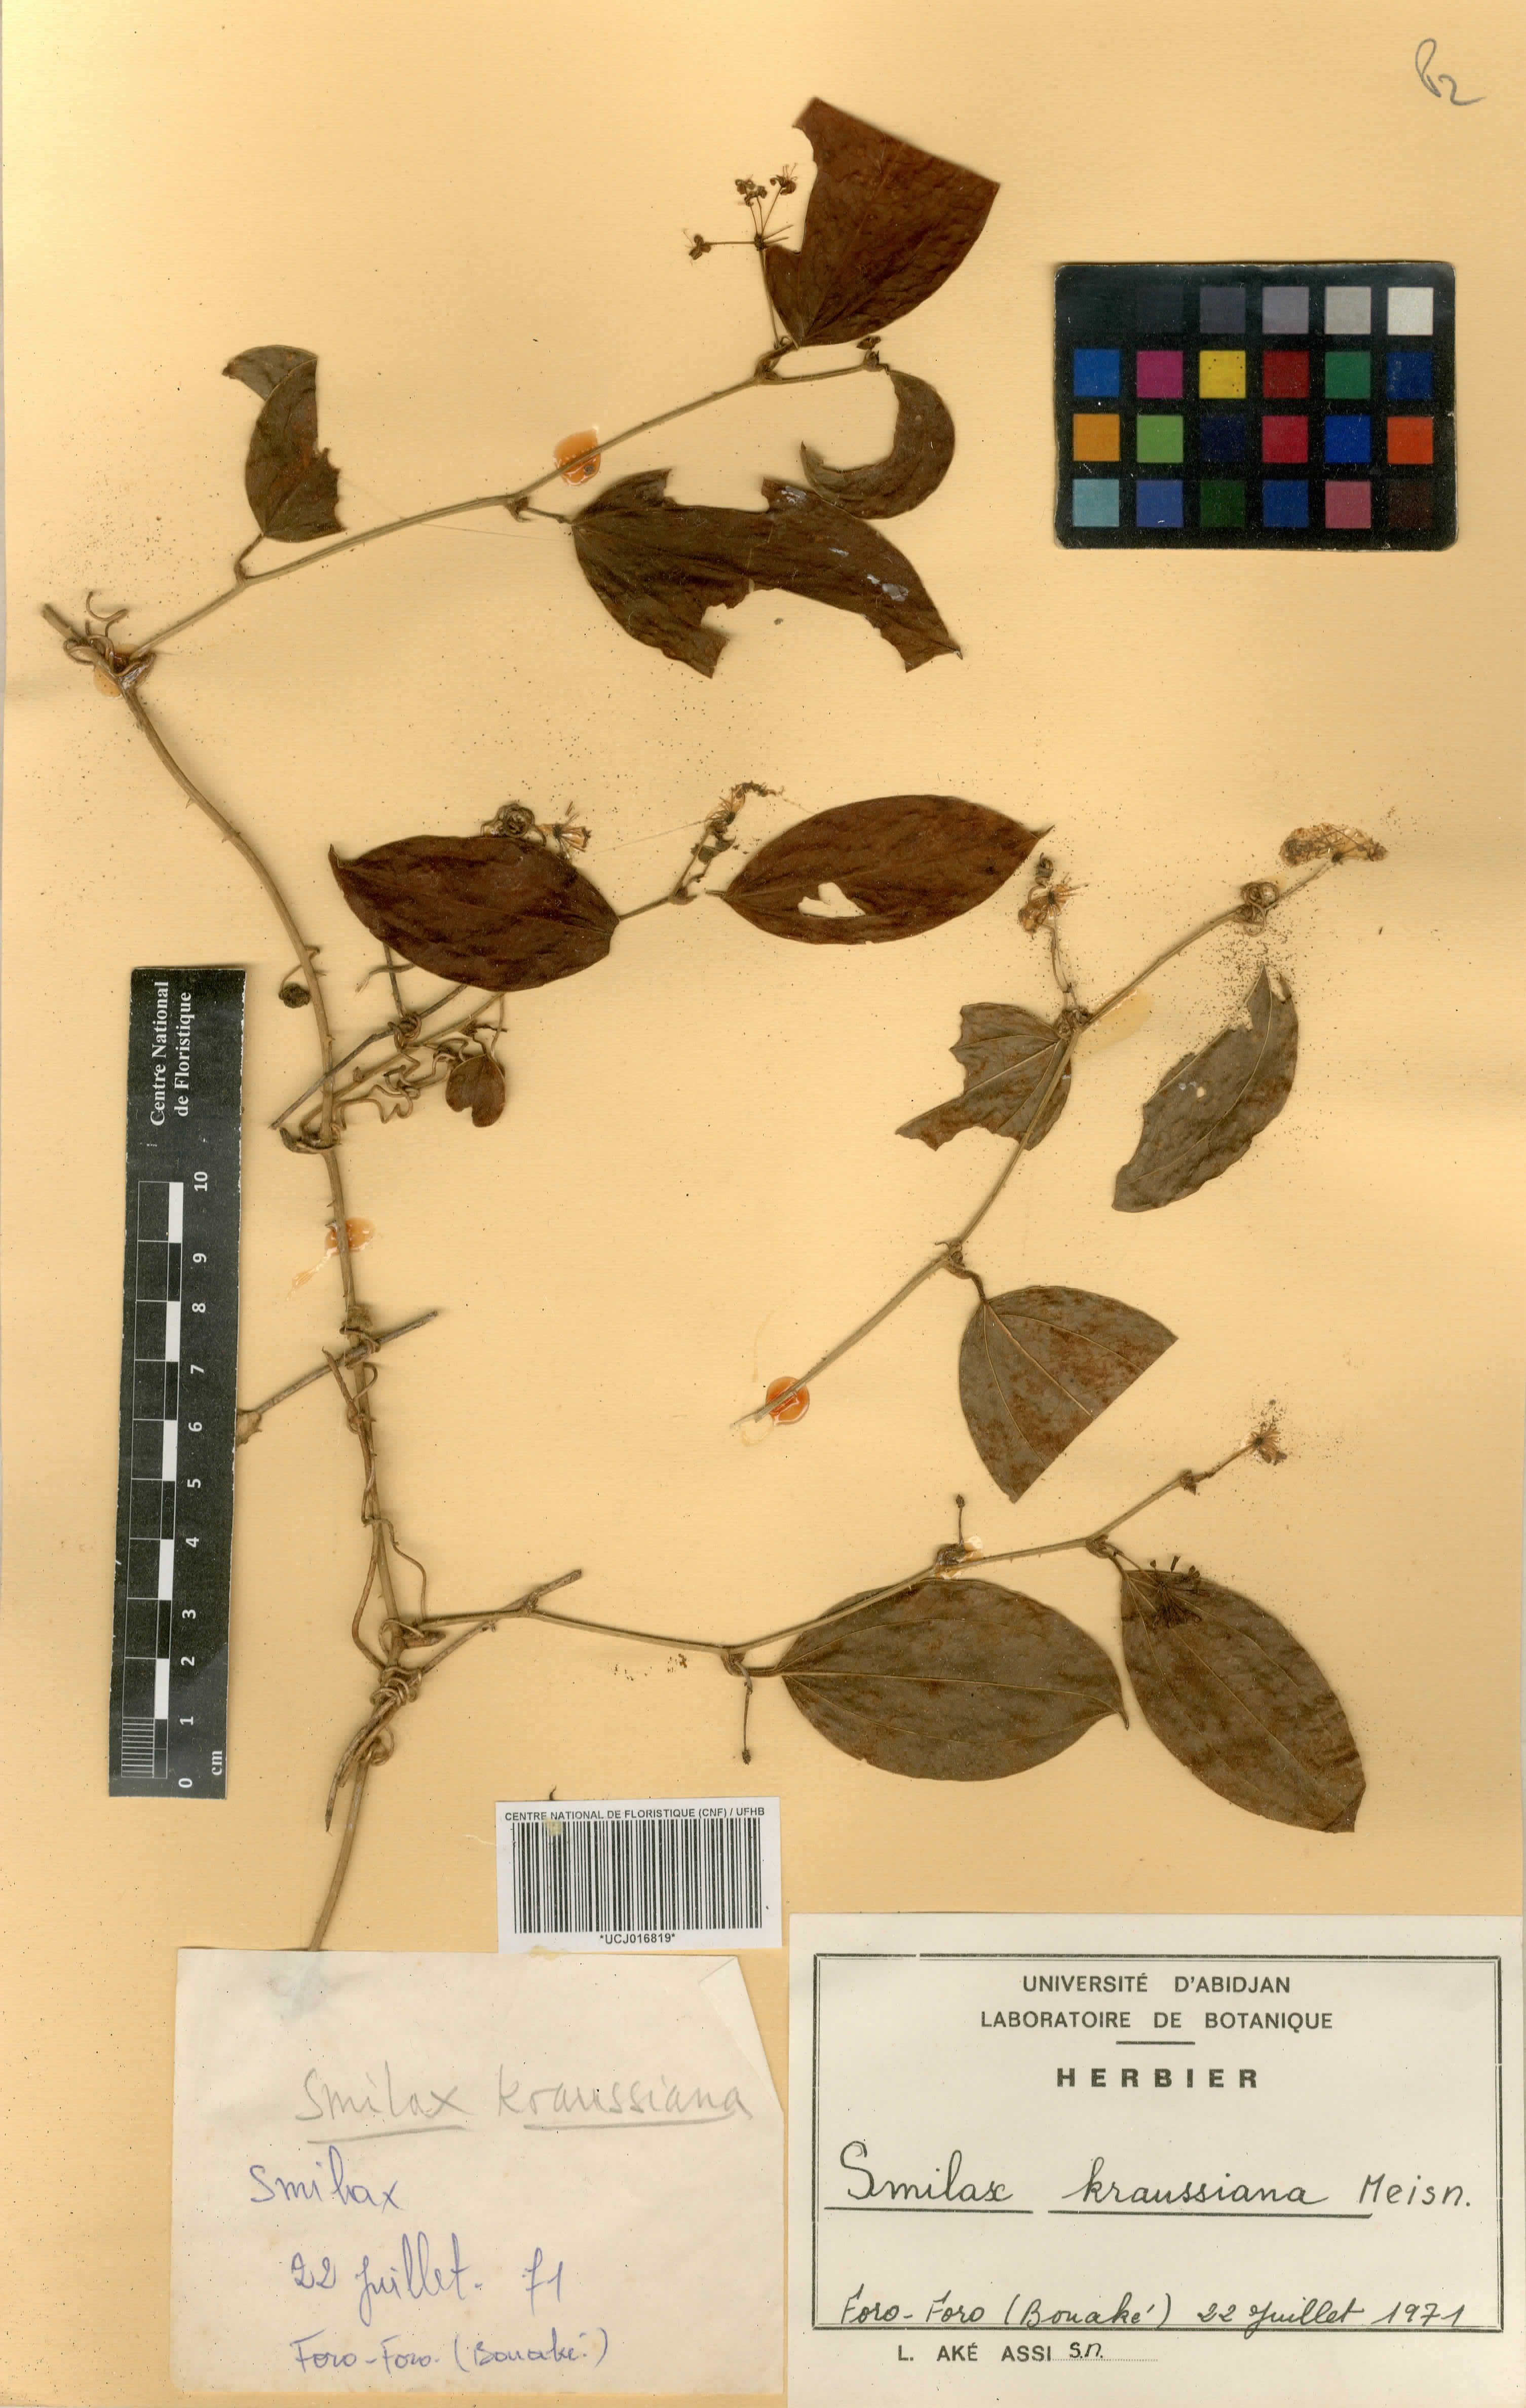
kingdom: Plantae
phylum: Tracheophyta
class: Liliopsida
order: Liliales
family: Smilacaceae
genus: Smilax
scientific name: Smilax anceps
